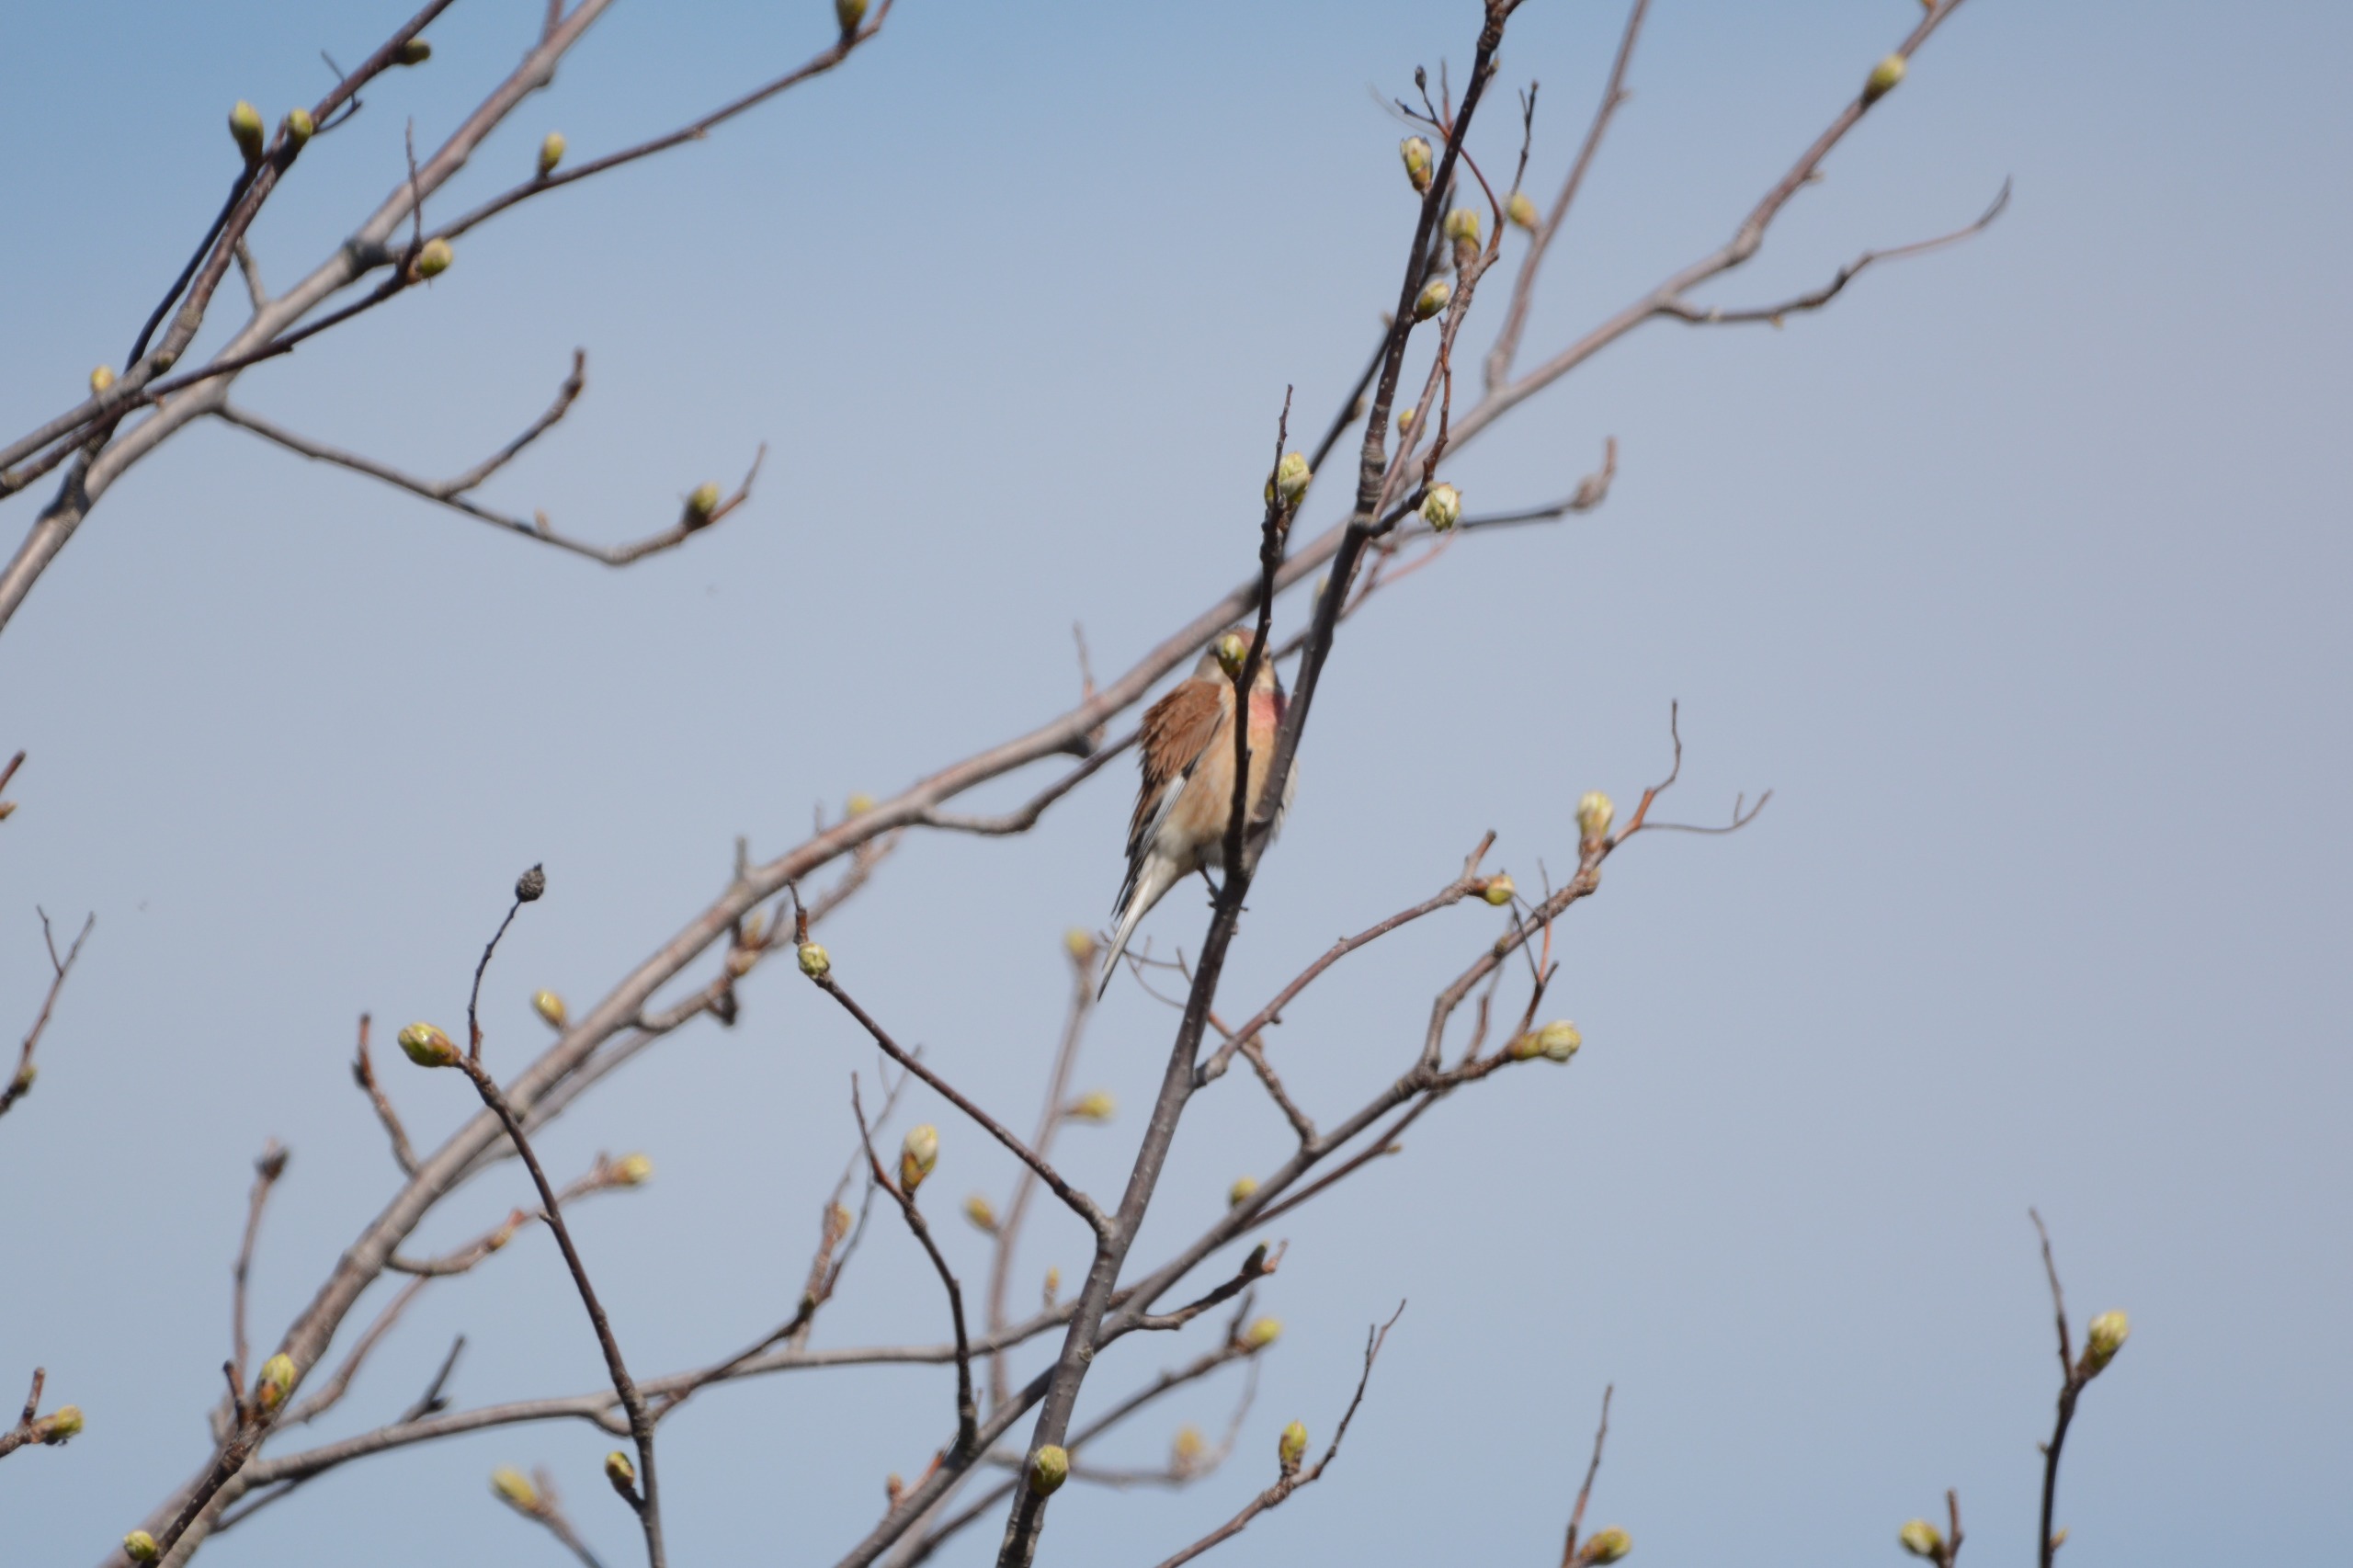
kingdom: Animalia
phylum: Chordata
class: Aves
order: Passeriformes
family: Fringillidae
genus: Linaria
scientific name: Linaria cannabina
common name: Tornirisk
